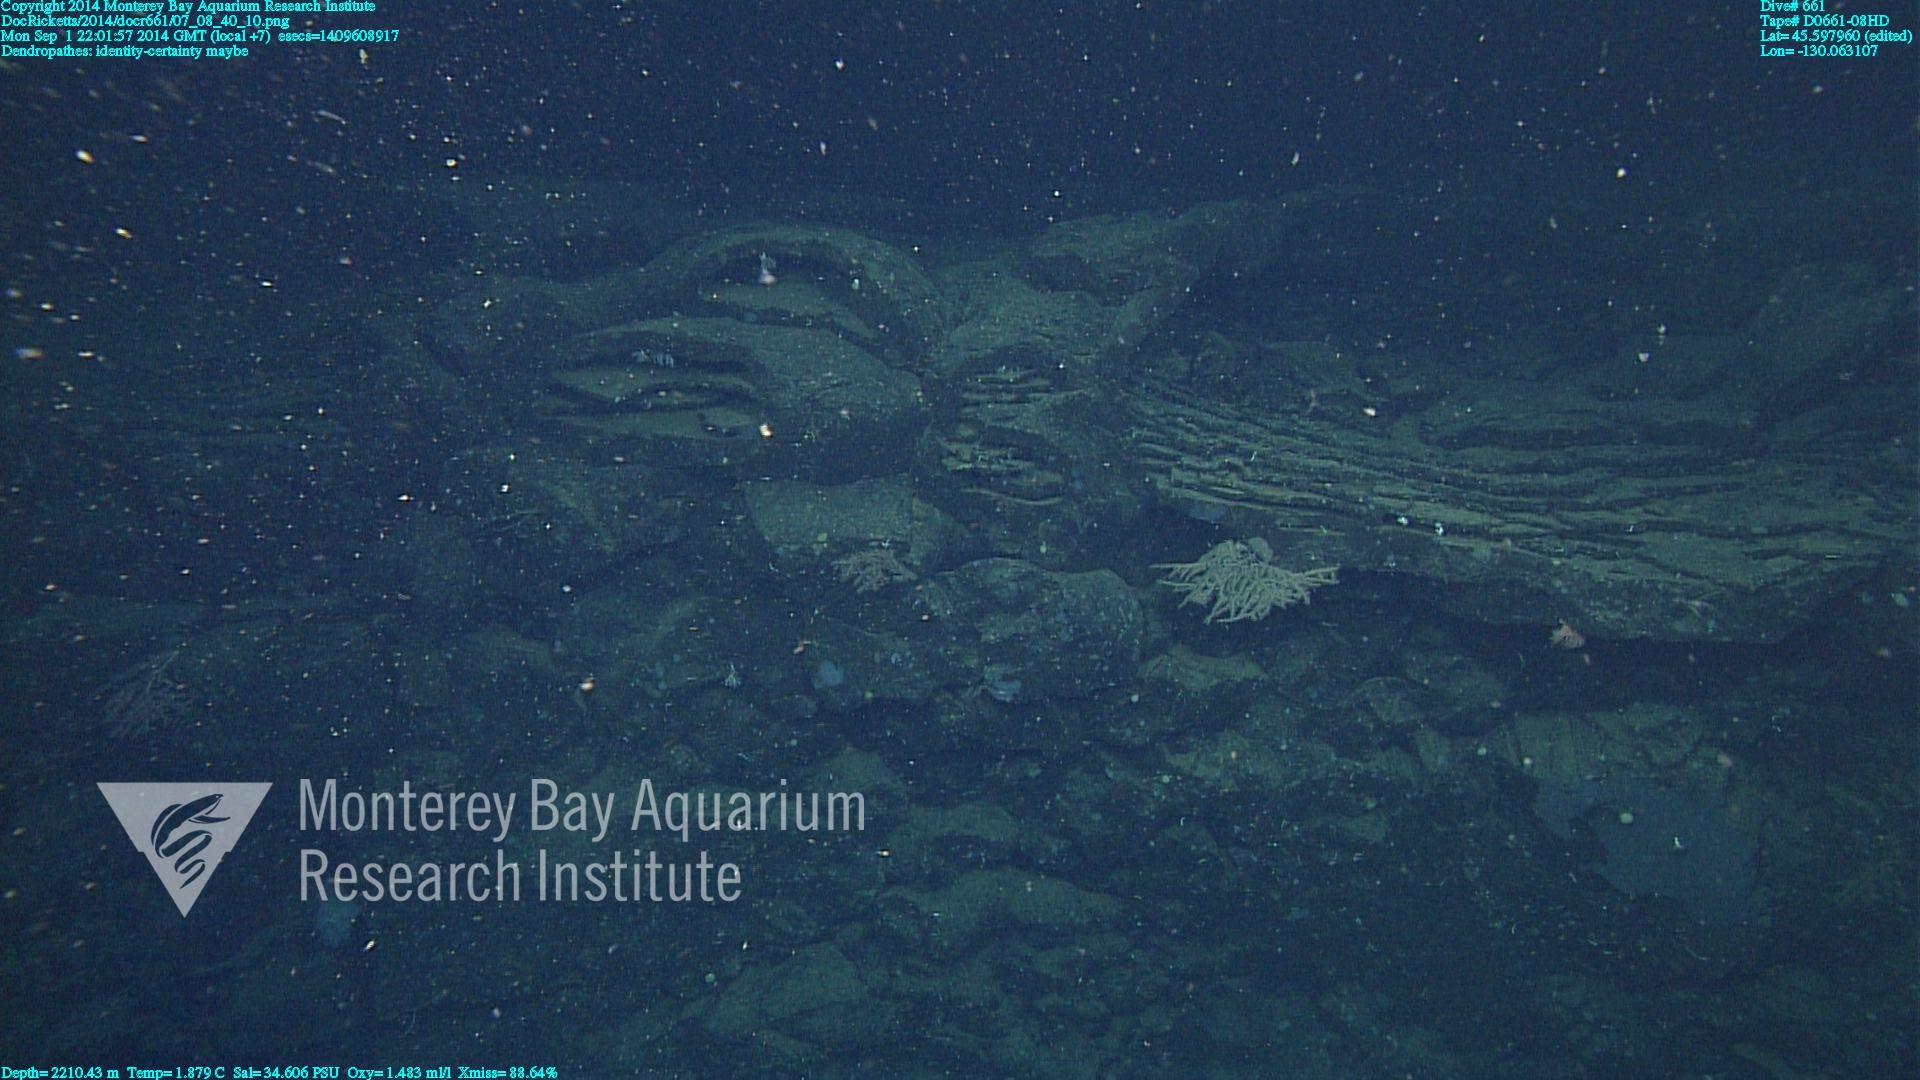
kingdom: Animalia
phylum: Cnidaria
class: Anthozoa
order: Antipatharia
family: Schizopathidae
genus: Dendropathes
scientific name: Dendropathes
